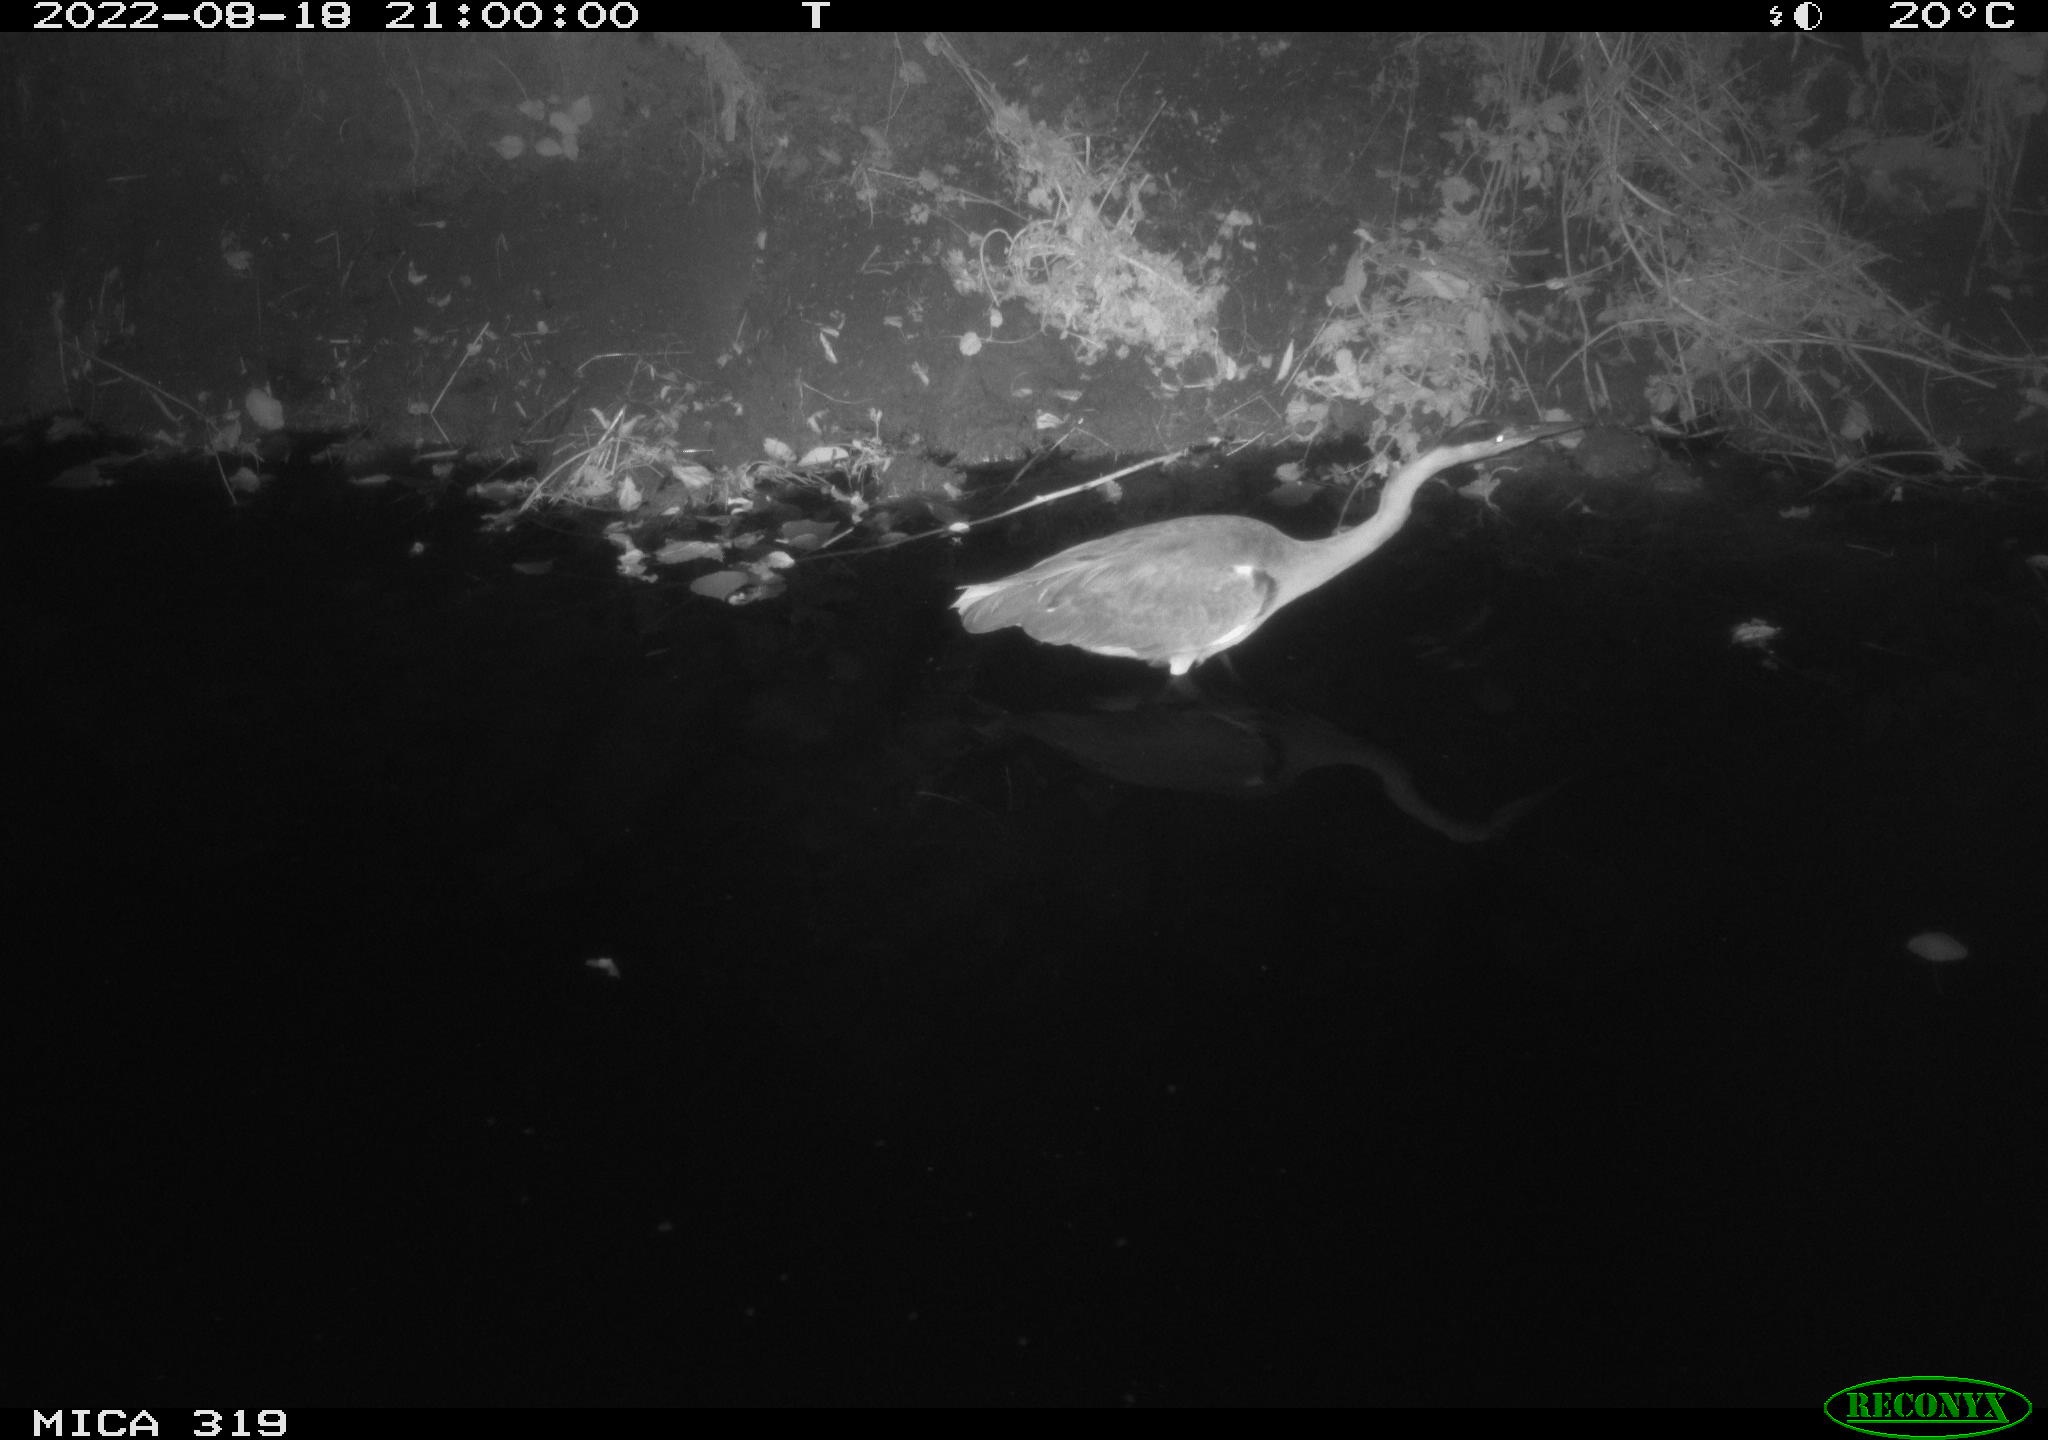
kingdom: Animalia
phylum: Chordata
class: Aves
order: Pelecaniformes
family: Ardeidae
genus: Ardea
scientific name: Ardea cinerea
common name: Grey heron
